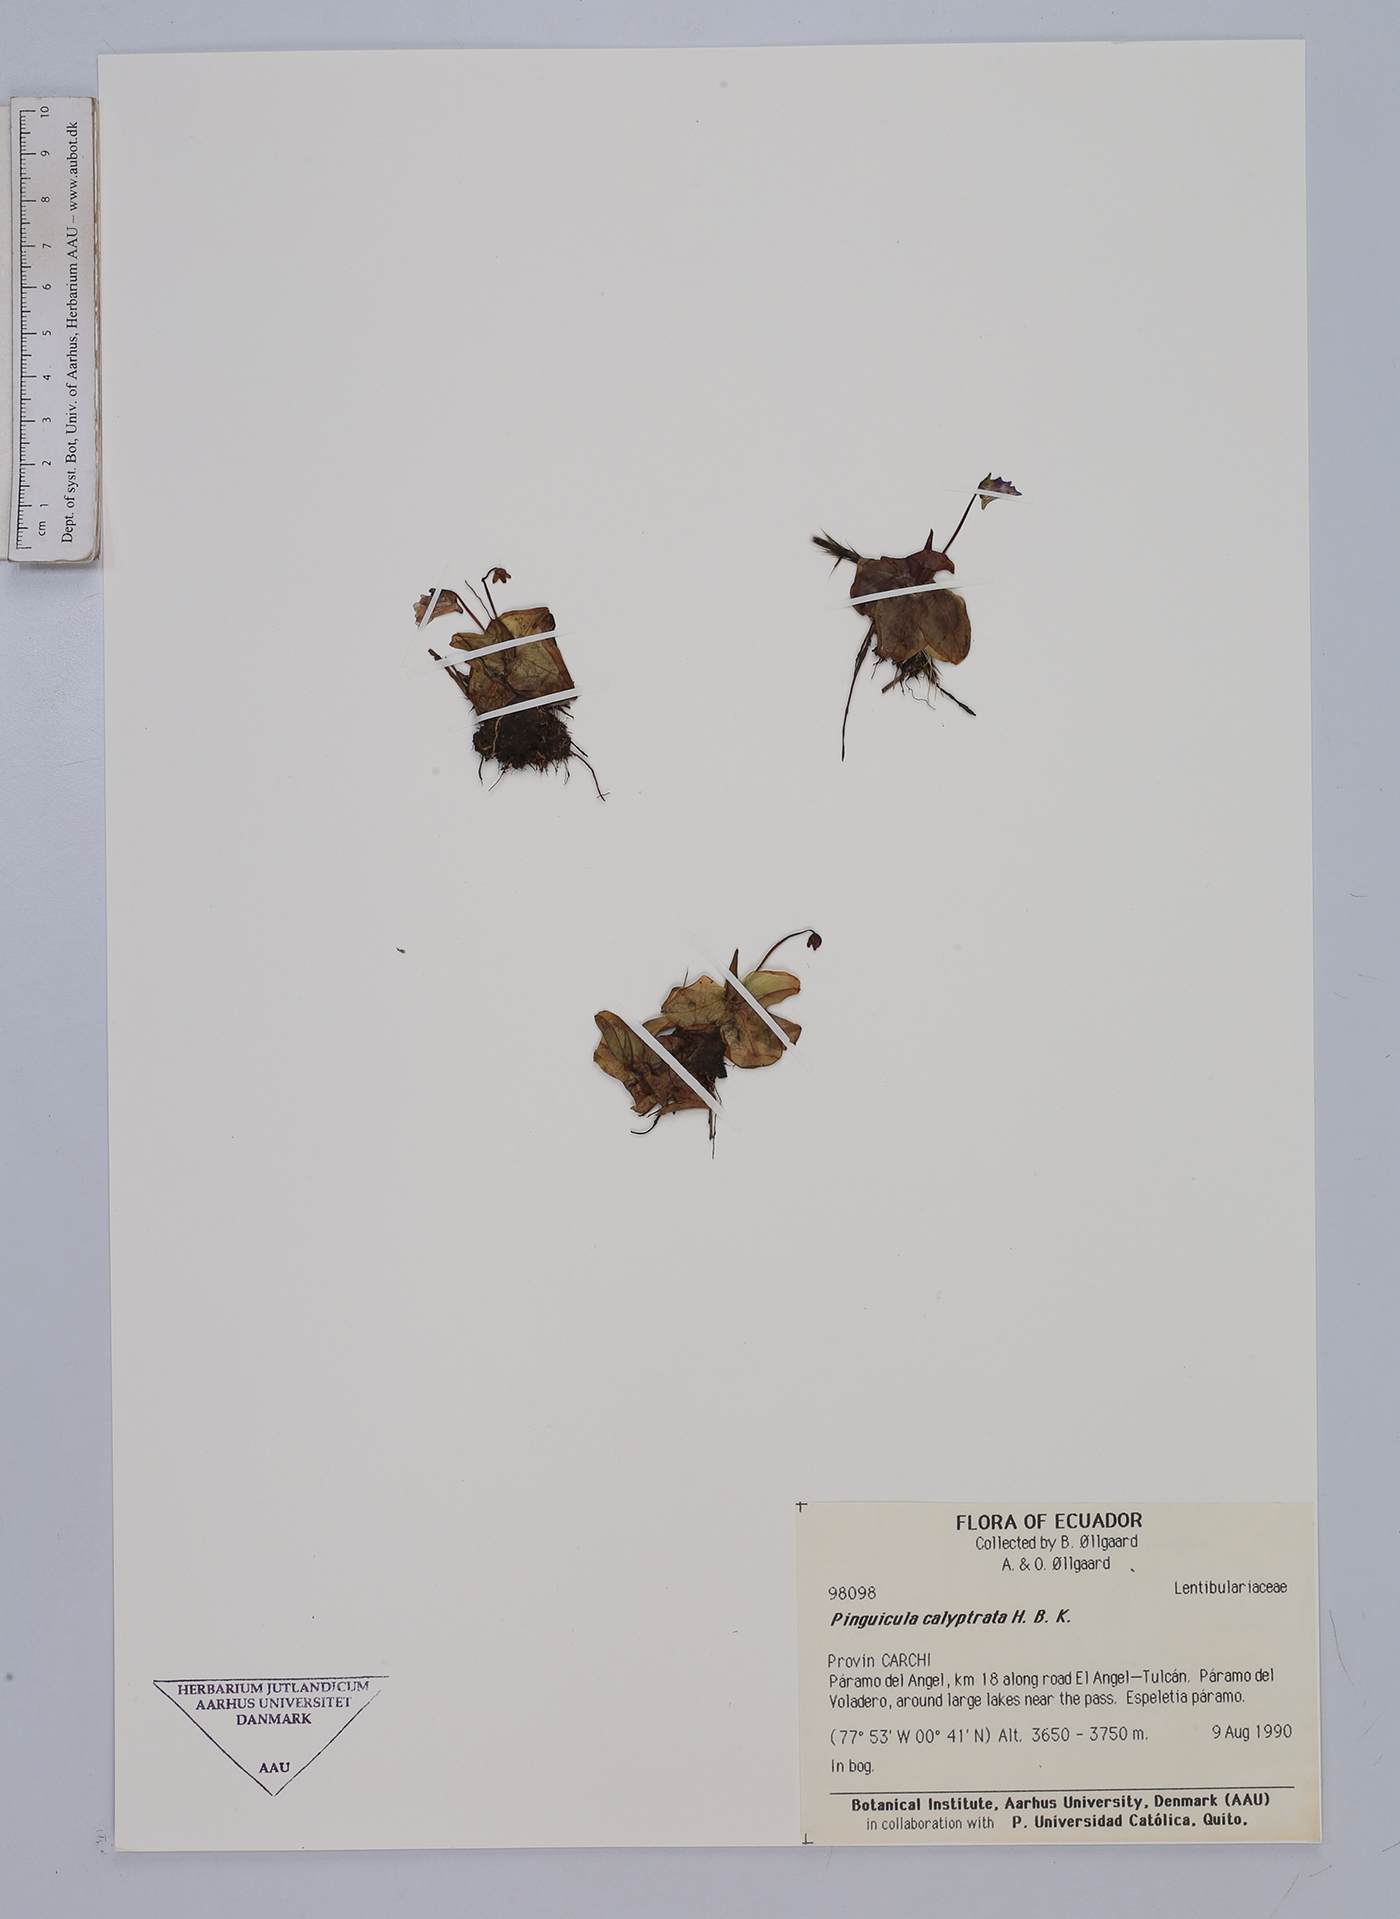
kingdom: Plantae
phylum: Tracheophyta
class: Magnoliopsida
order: Lamiales
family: Lentibulariaceae
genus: Pinguicula
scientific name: Pinguicula calyptrata
